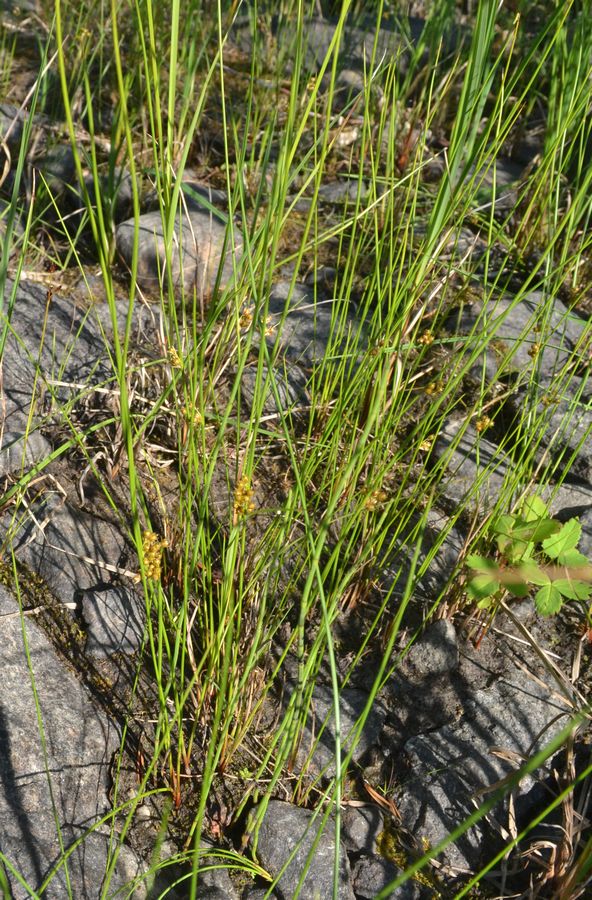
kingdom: Plantae
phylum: Tracheophyta
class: Liliopsida
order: Poales
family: Juncaceae
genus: Juncus
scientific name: Juncus filiformis
